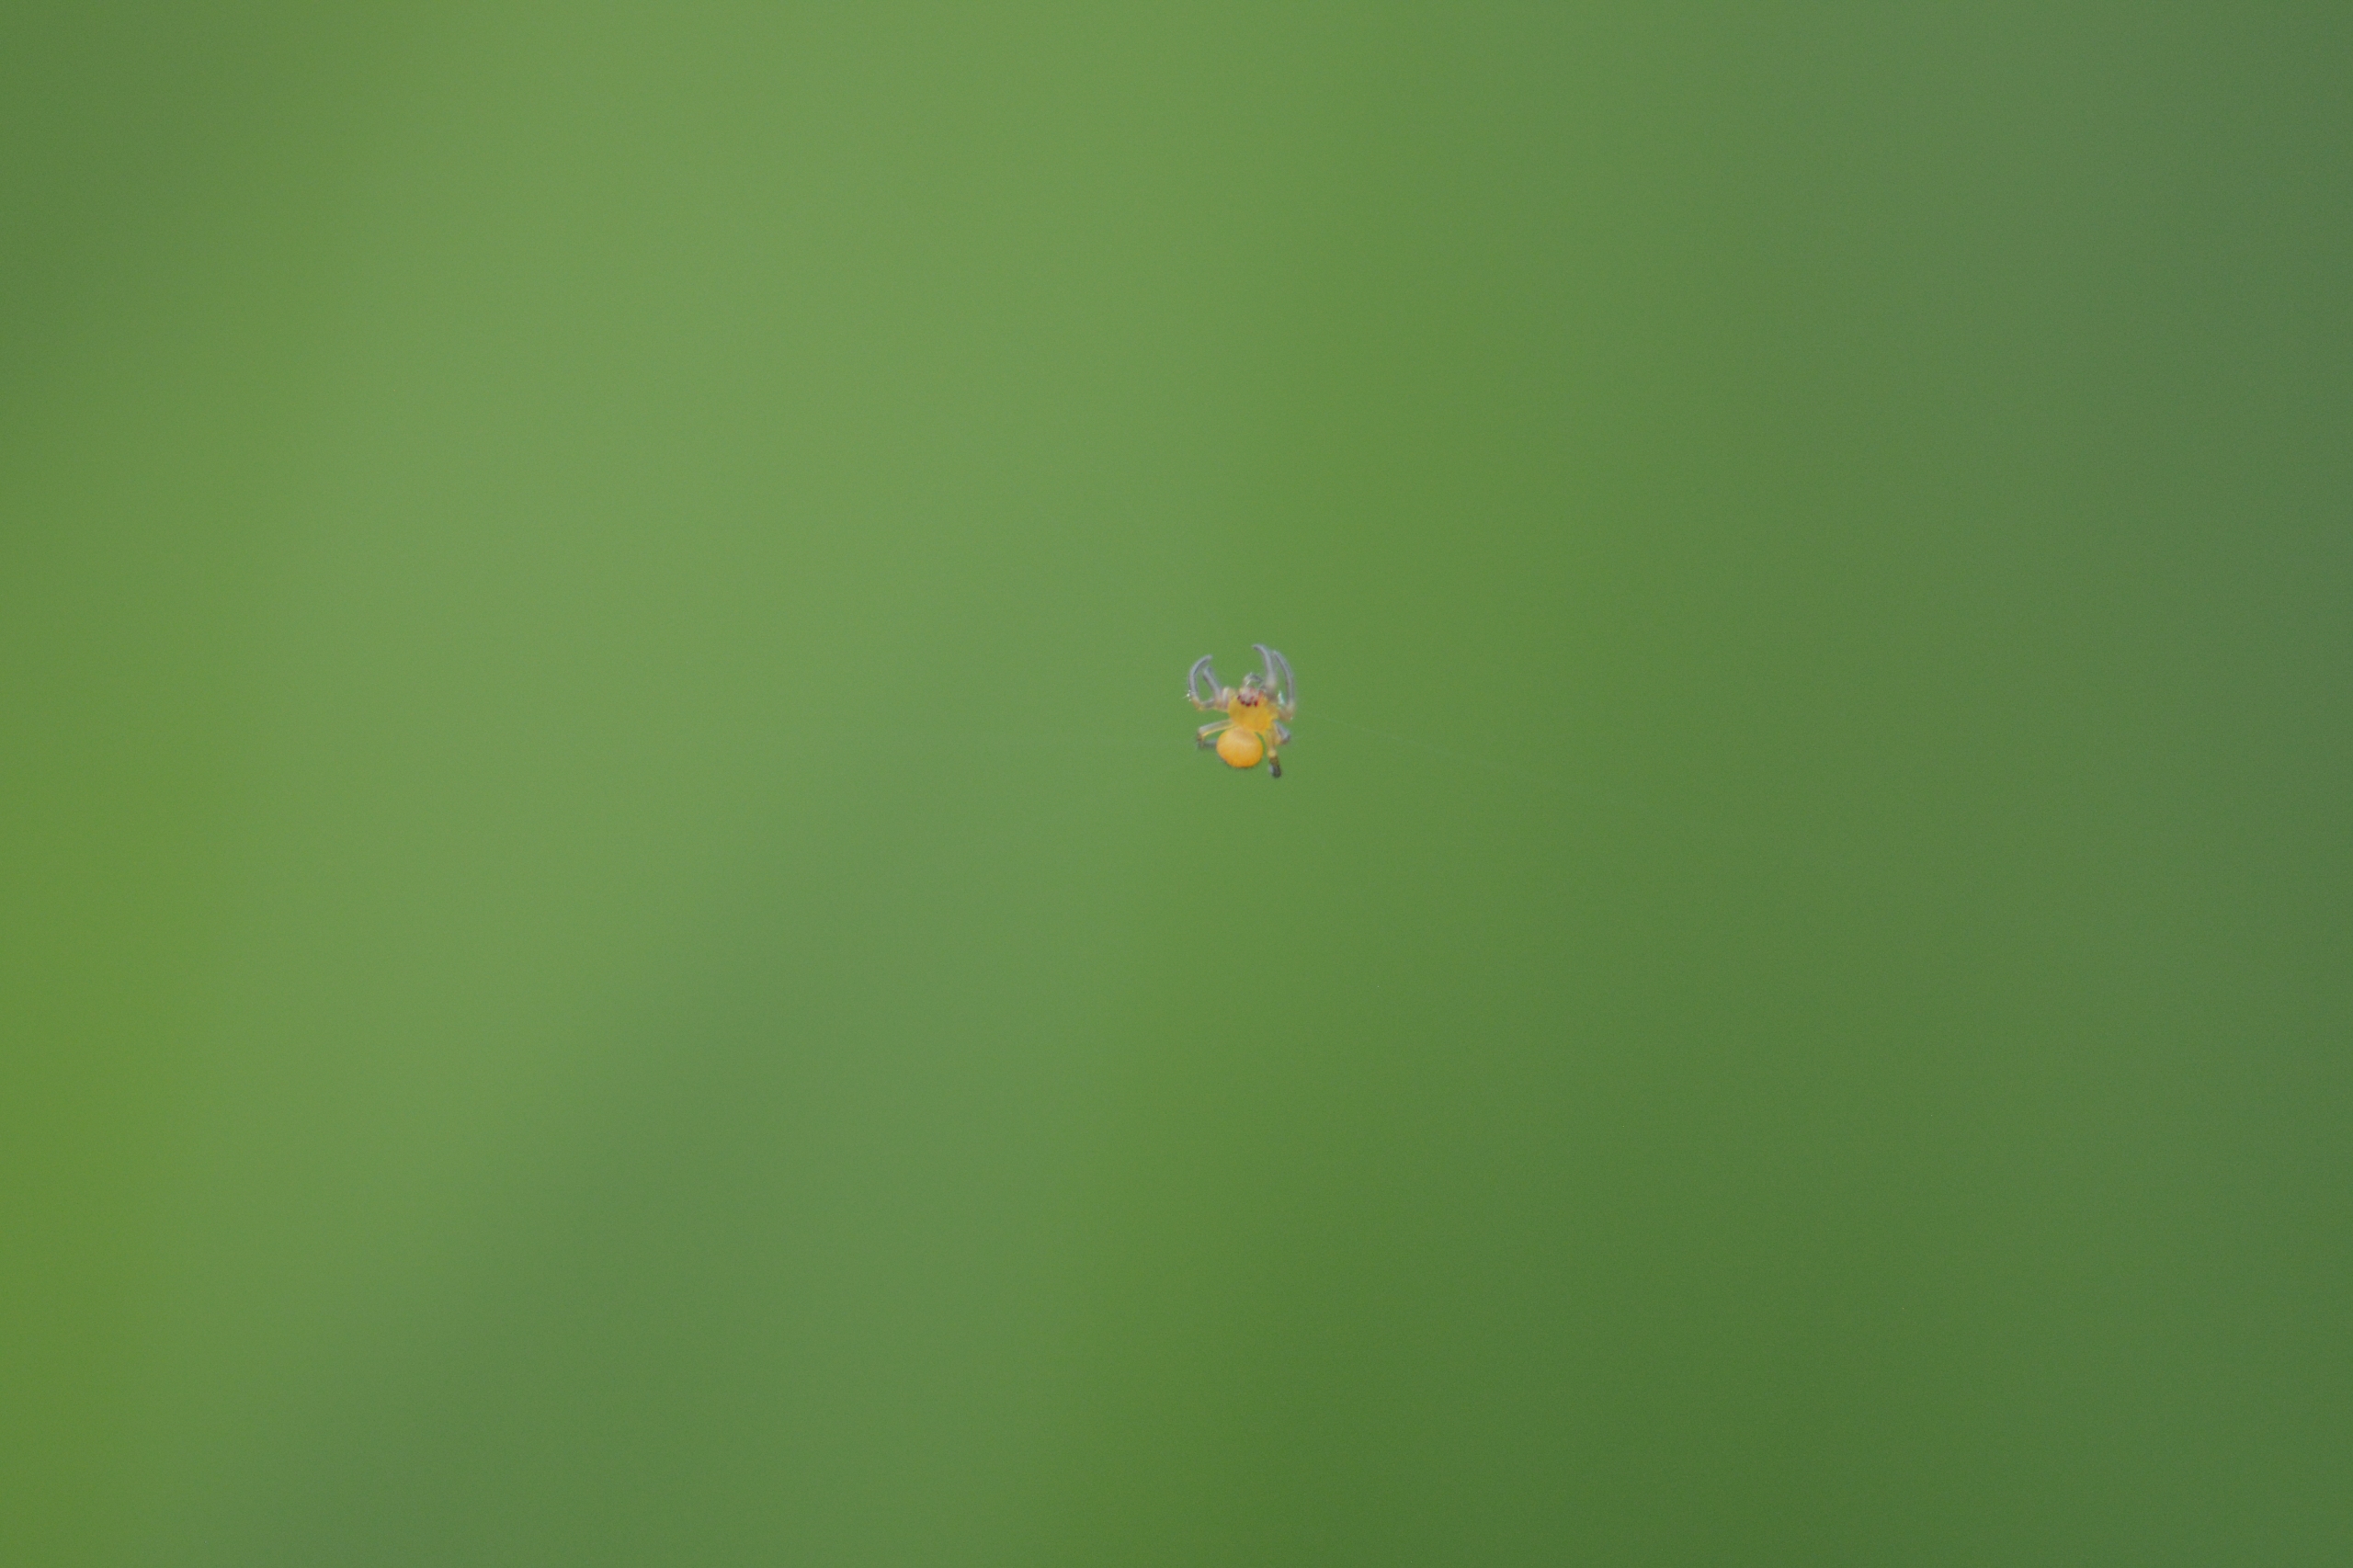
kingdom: Animalia
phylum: Arthropoda
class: Arachnida
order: Araneae
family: Araneidae
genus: Araneus
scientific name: Araneus diadematus
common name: Korsedderkop
